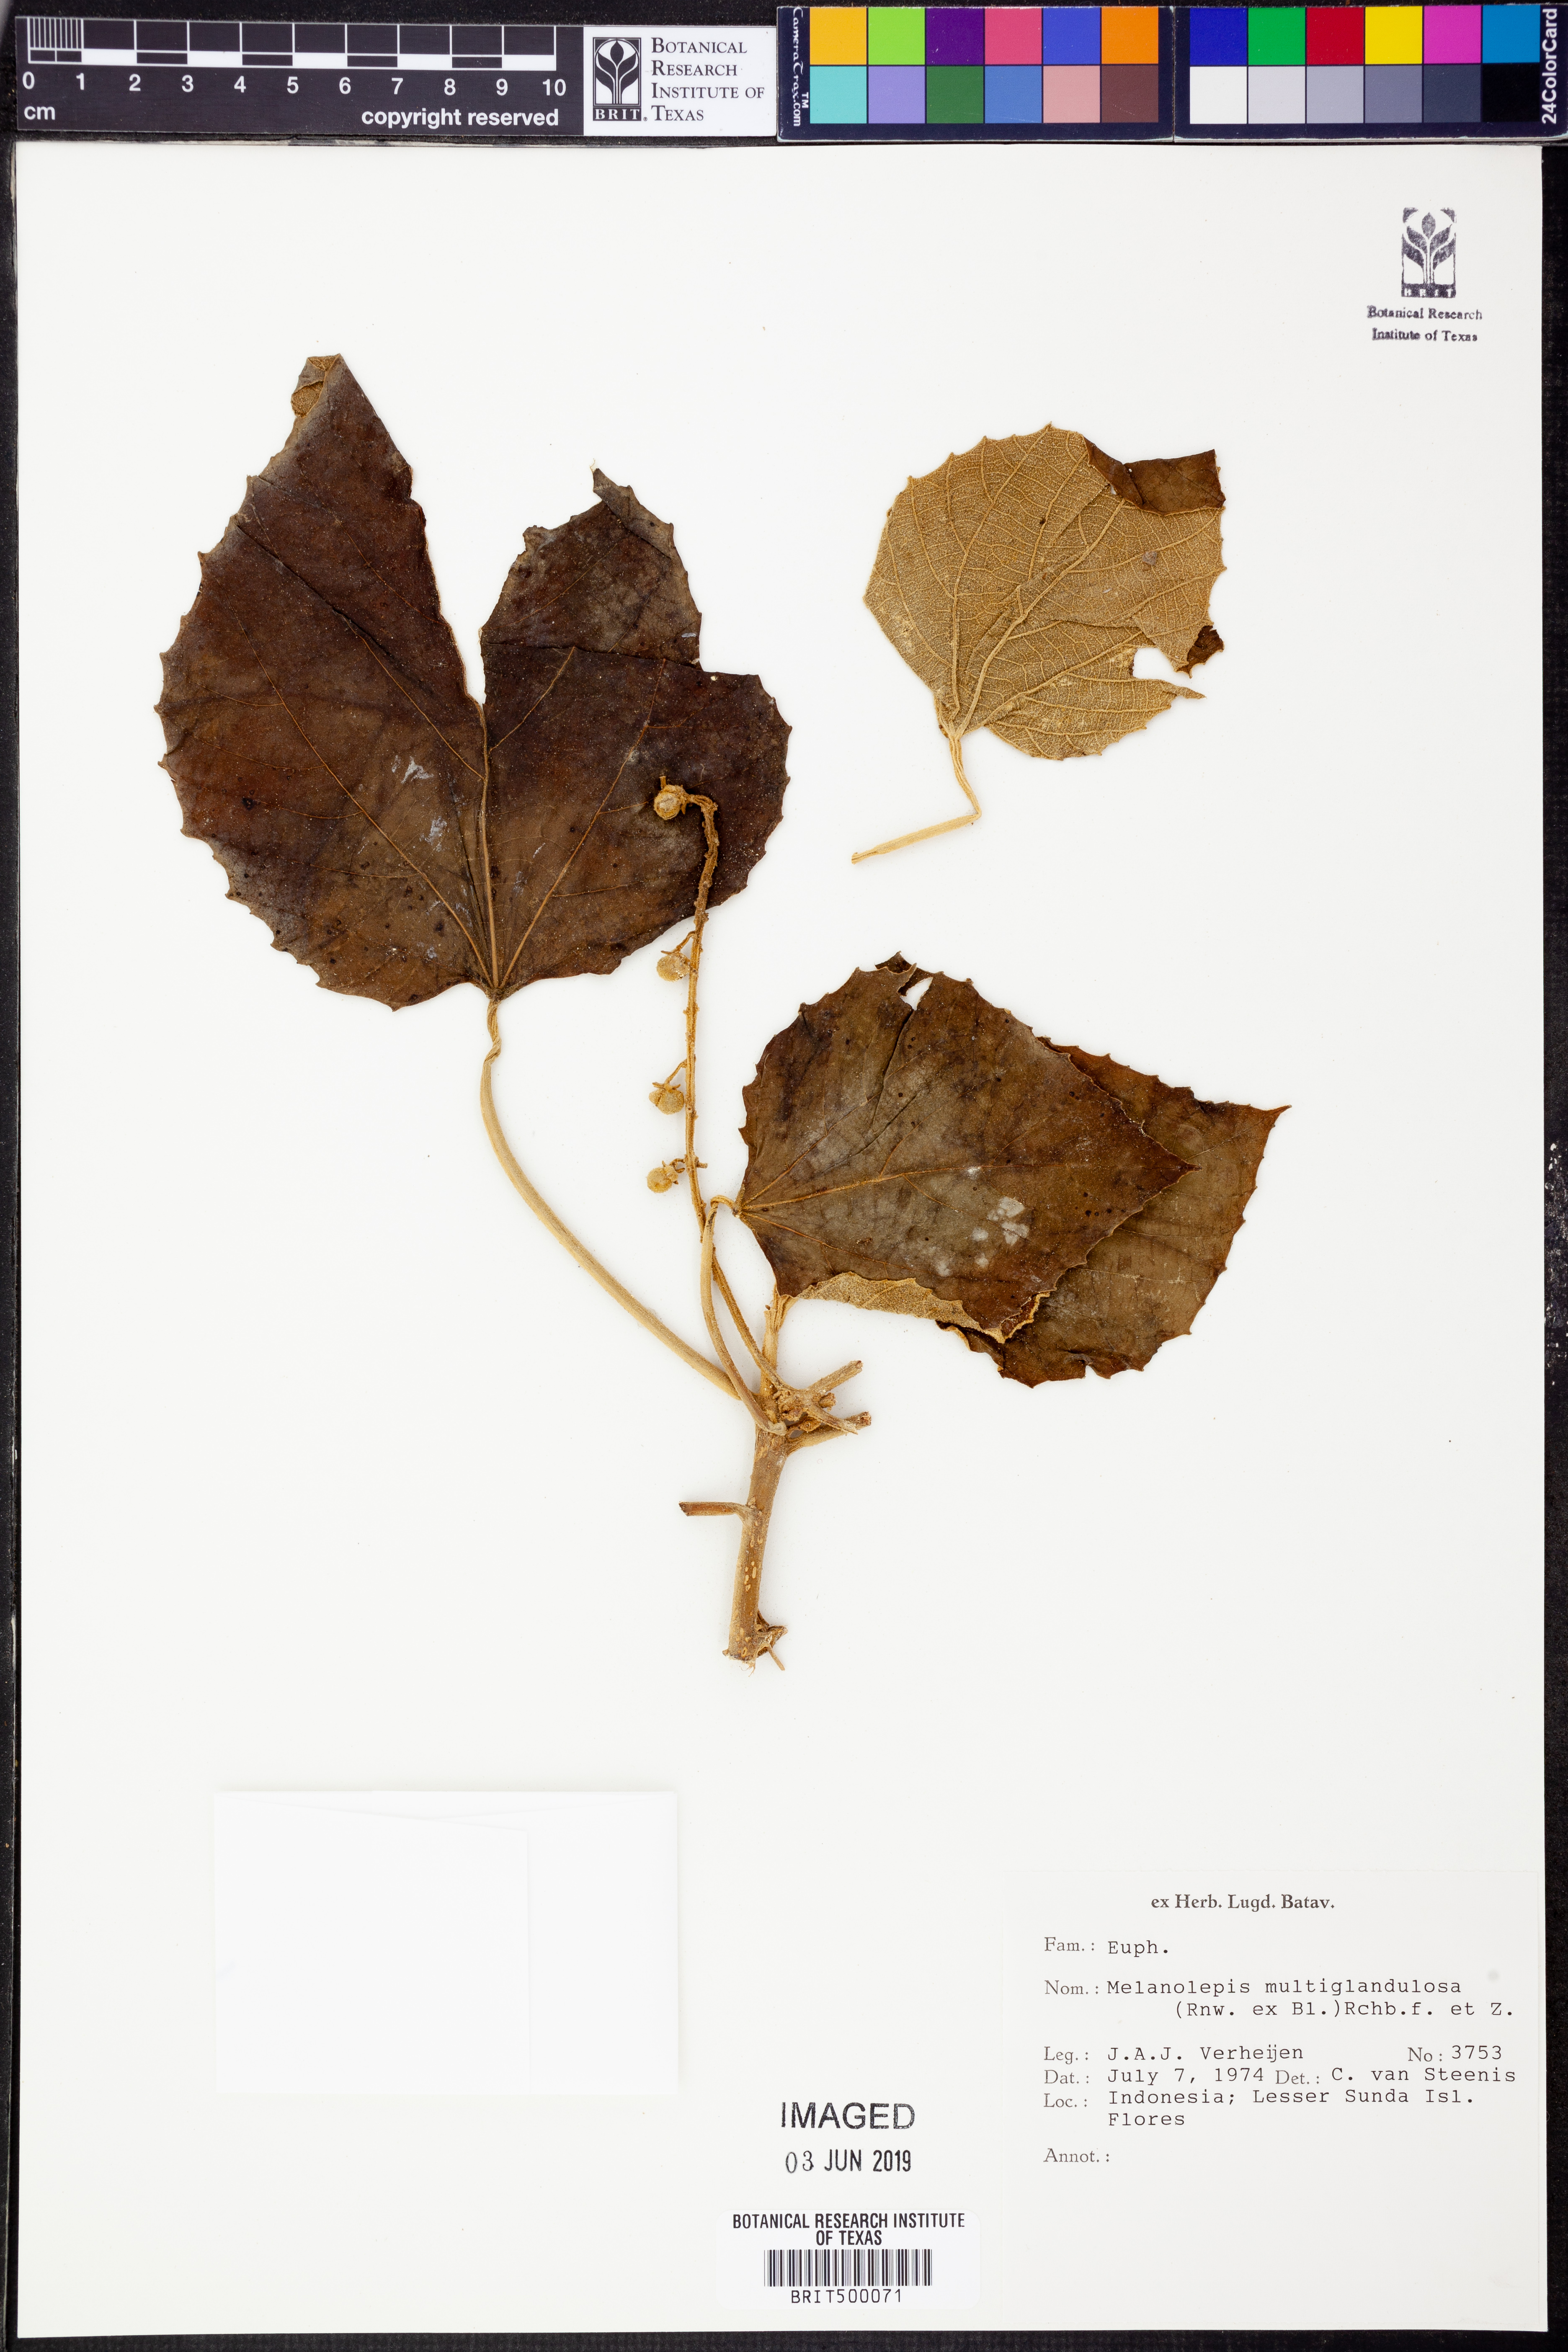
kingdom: Plantae
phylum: Tracheophyta
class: Magnoliopsida
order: Malpighiales
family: Euphorbiaceae
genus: Melanolepis
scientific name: Melanolepis multiglandulosa
